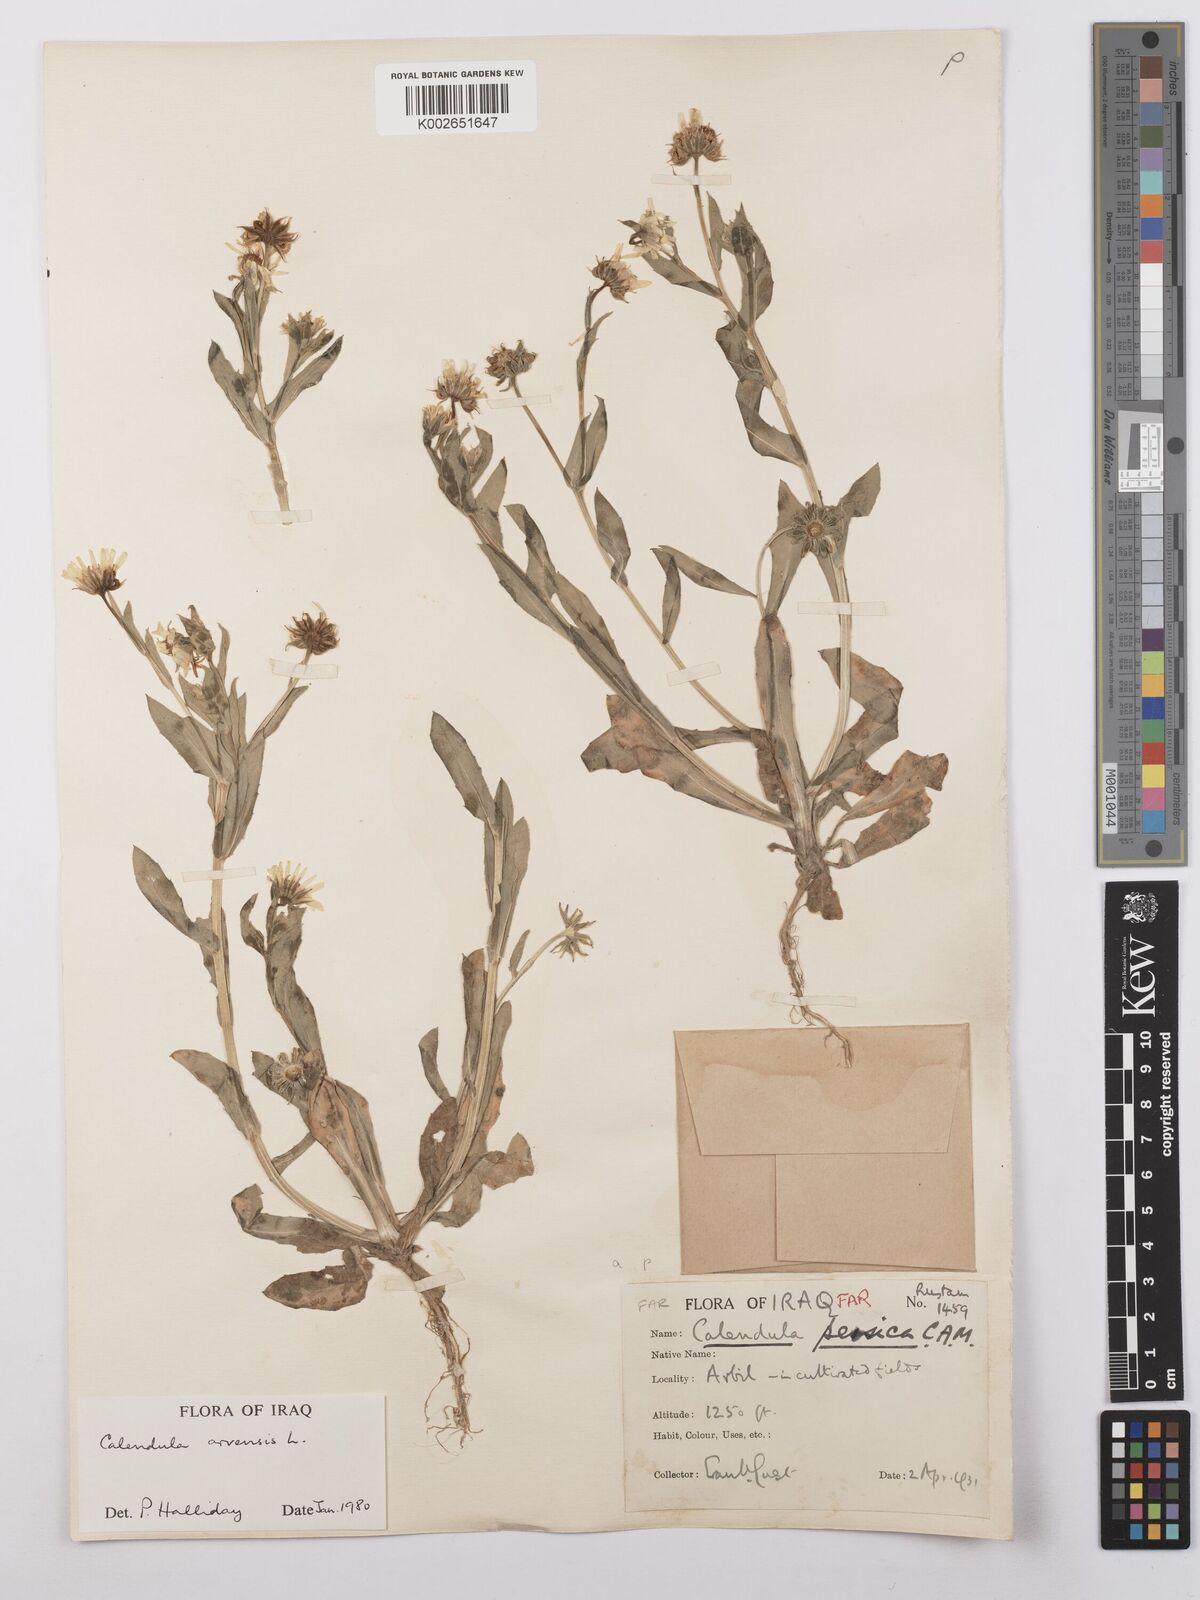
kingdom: Plantae
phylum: Tracheophyta
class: Magnoliopsida
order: Asterales
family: Asteraceae
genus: Calendula
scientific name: Calendula arvensis
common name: Field marigold
